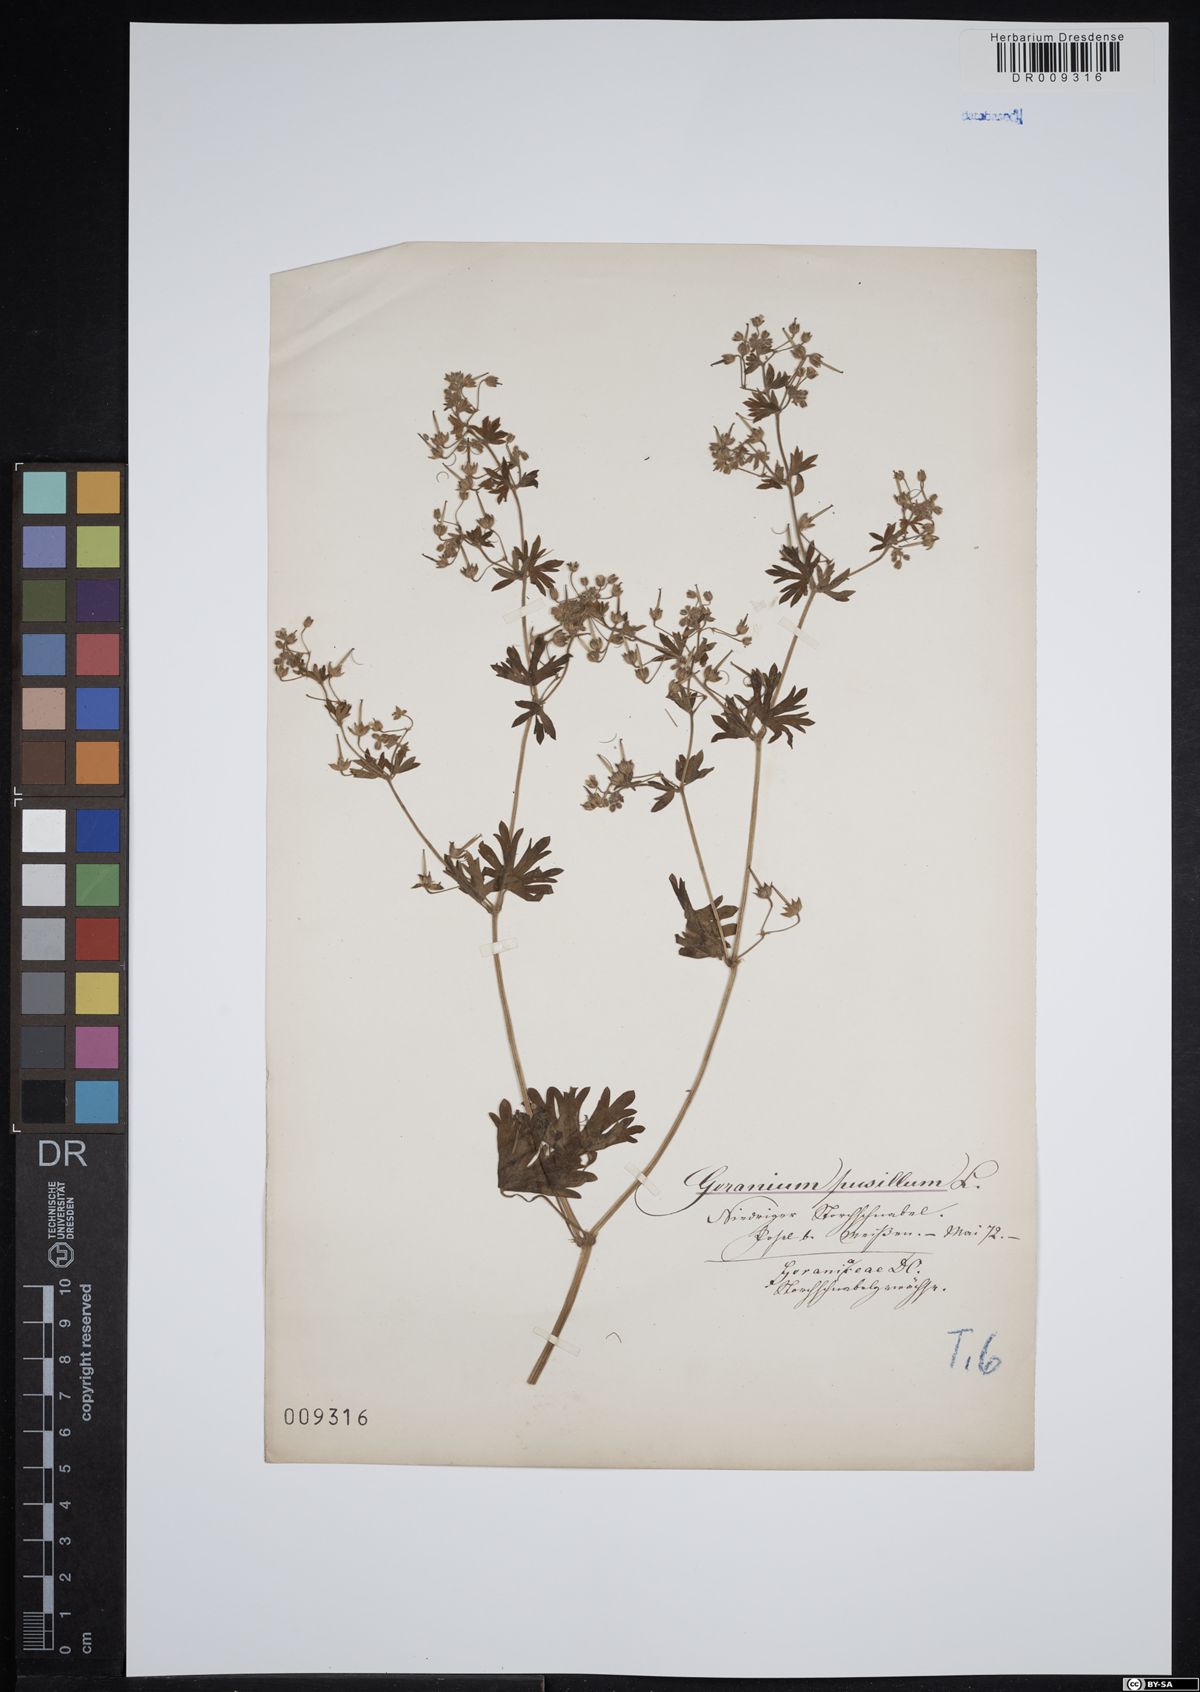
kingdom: Plantae
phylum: Tracheophyta
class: Magnoliopsida
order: Geraniales
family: Geraniaceae
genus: Geranium
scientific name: Geranium pusillum
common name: Small geranium
